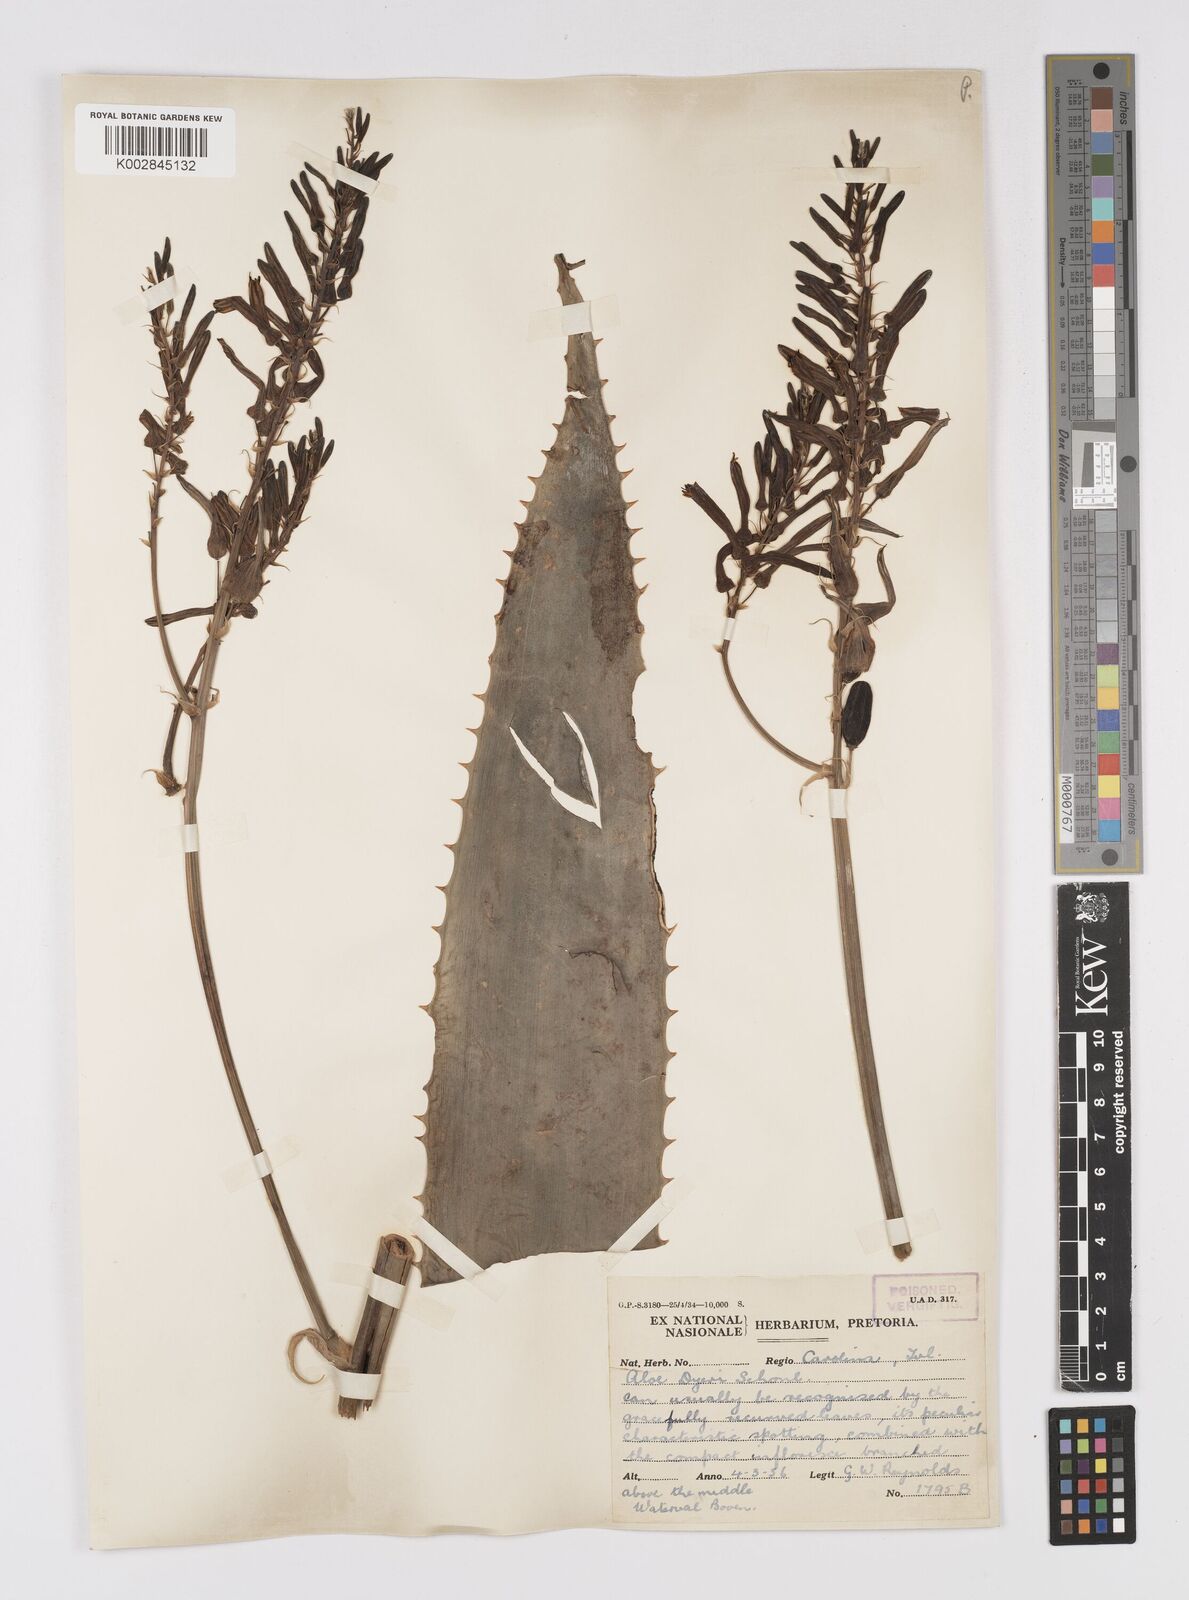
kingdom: Plantae
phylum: Tracheophyta
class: Liliopsida
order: Asparagales
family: Asphodelaceae
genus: Aloe
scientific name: Aloe dyeri
